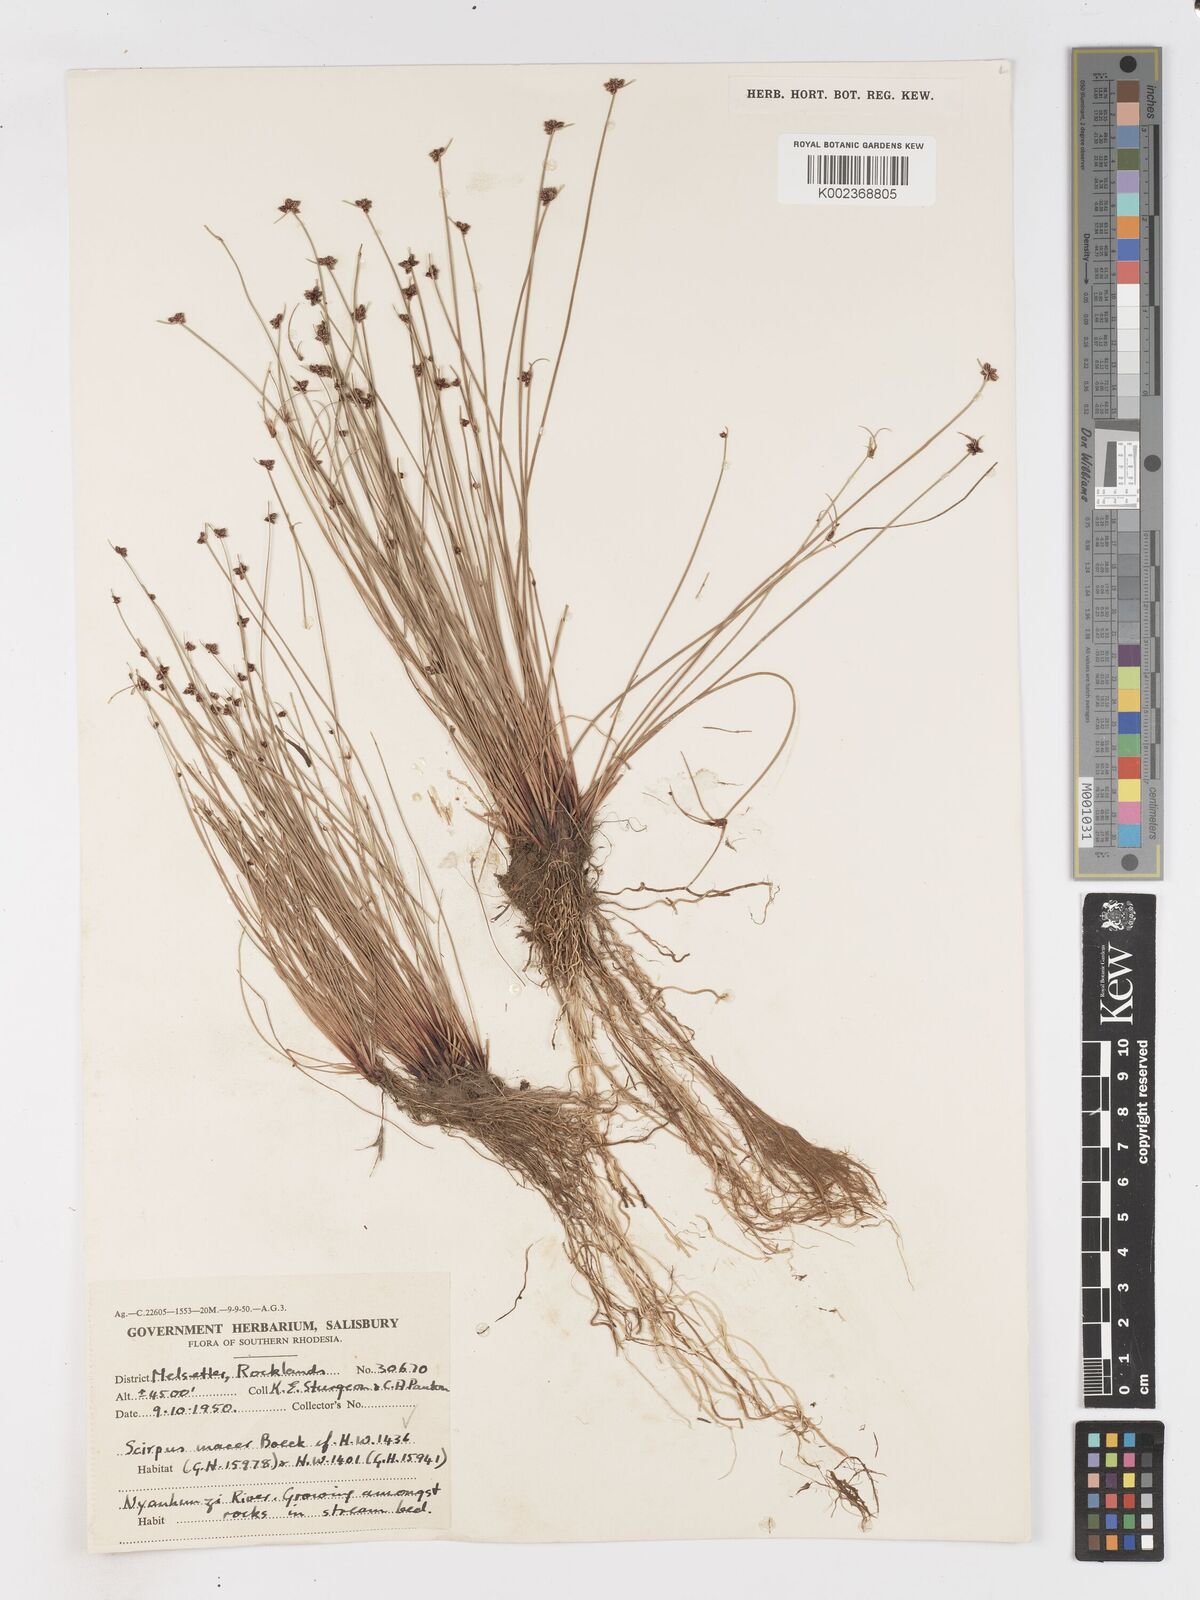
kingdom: Plantae
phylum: Tracheophyta
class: Liliopsida
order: Poales
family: Cyperaceae
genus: Isolepis
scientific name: Isolepis costata
